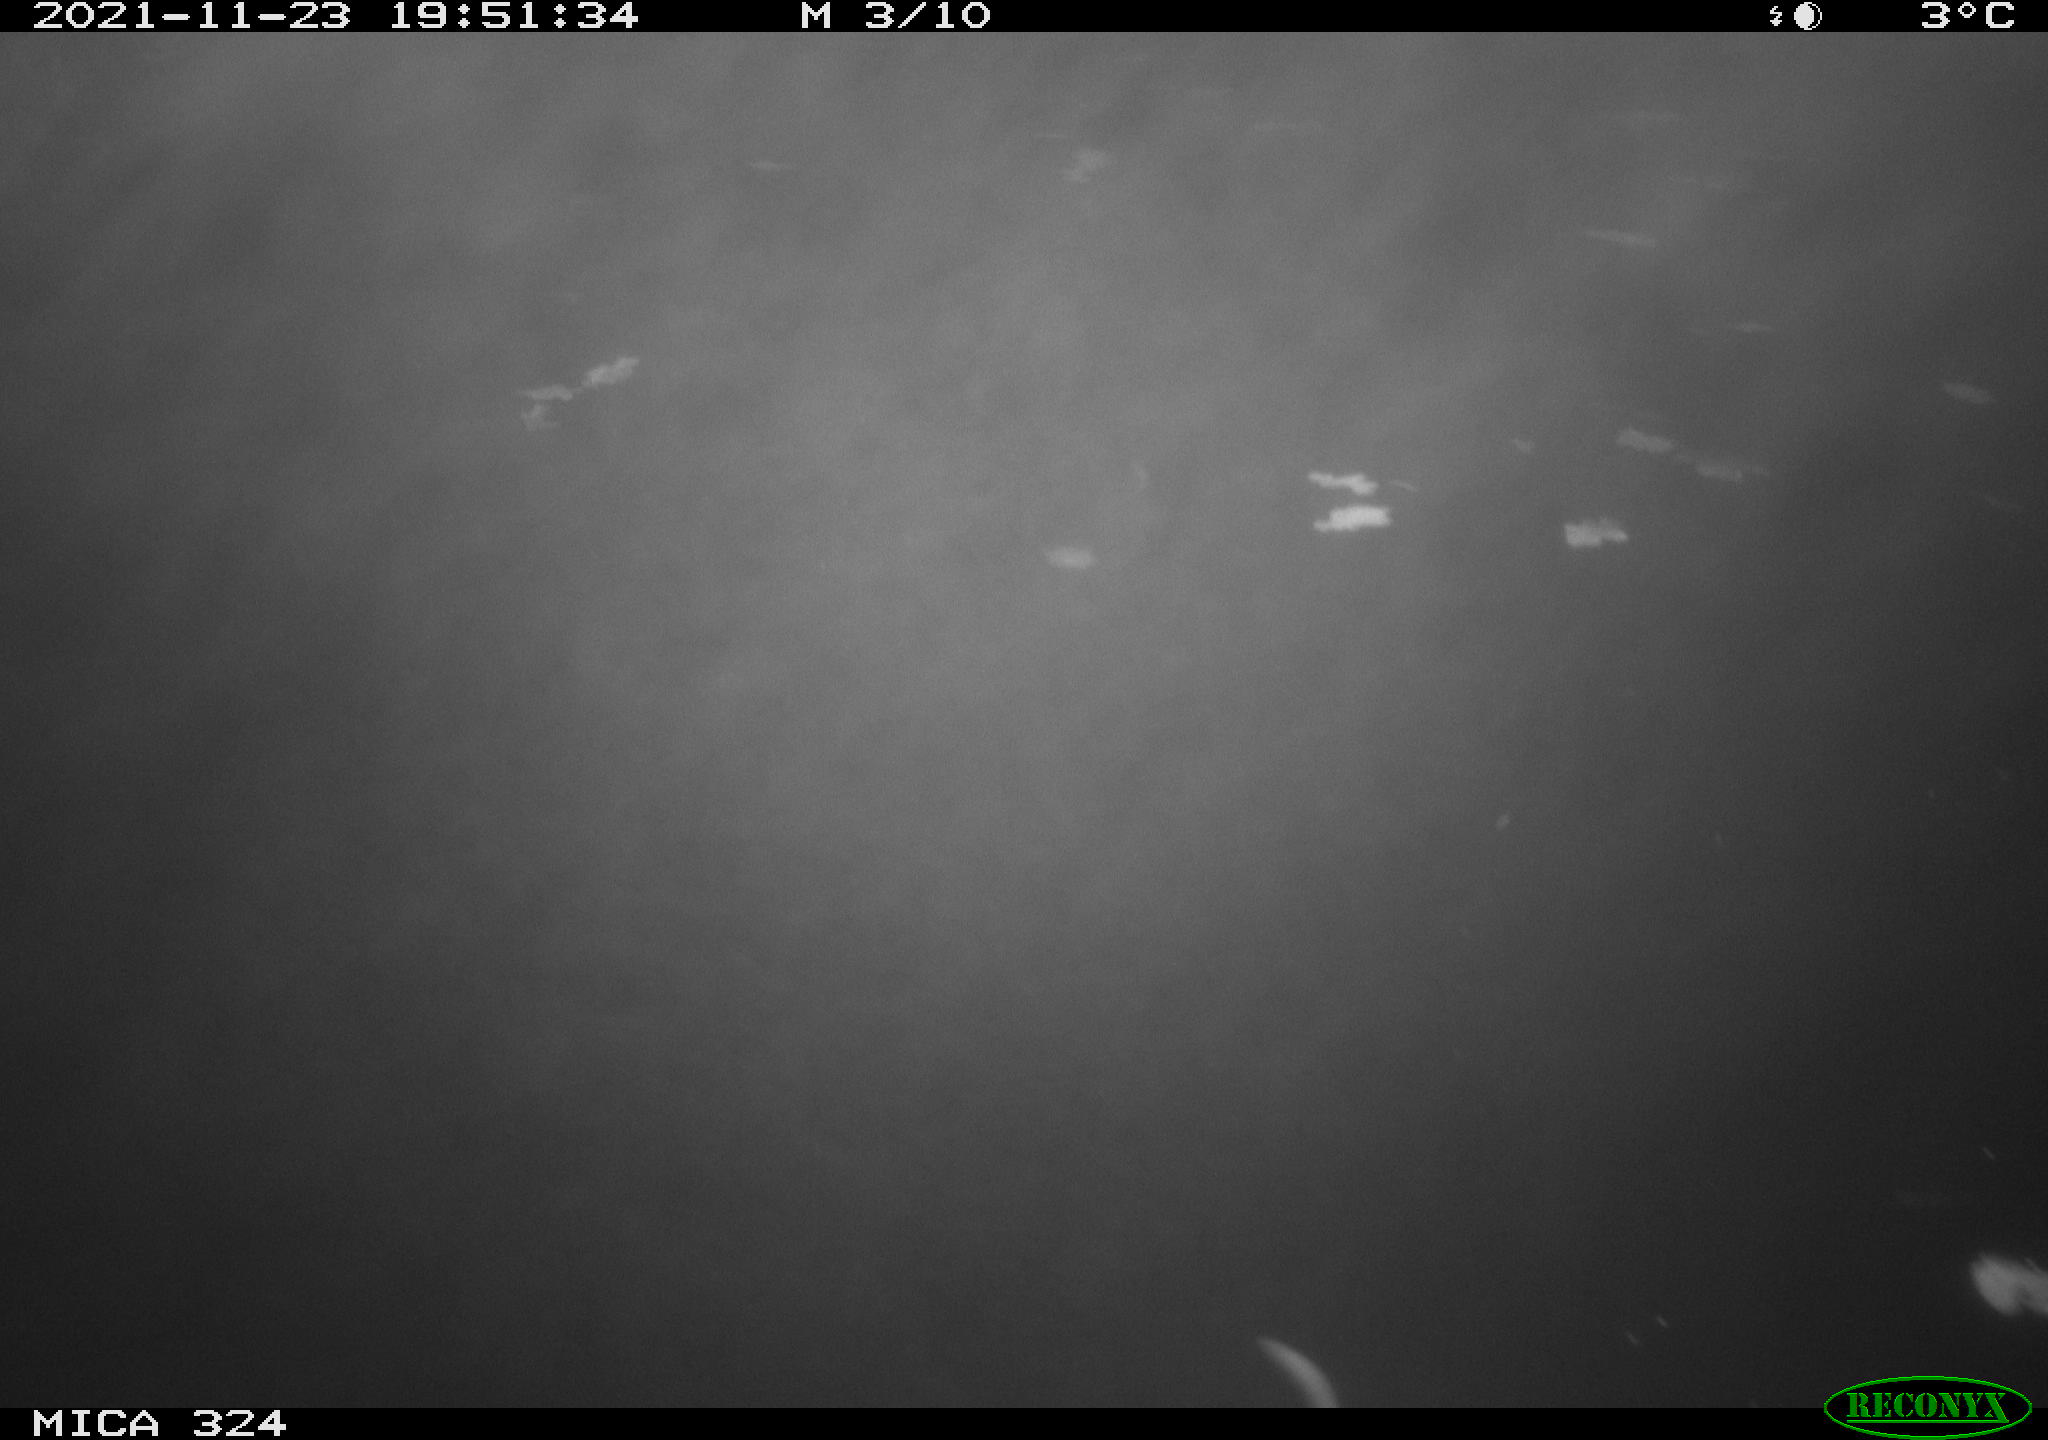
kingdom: Animalia
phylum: Chordata
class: Mammalia
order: Rodentia
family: Cricetidae
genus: Ondatra
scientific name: Ondatra zibethicus
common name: Muskrat
